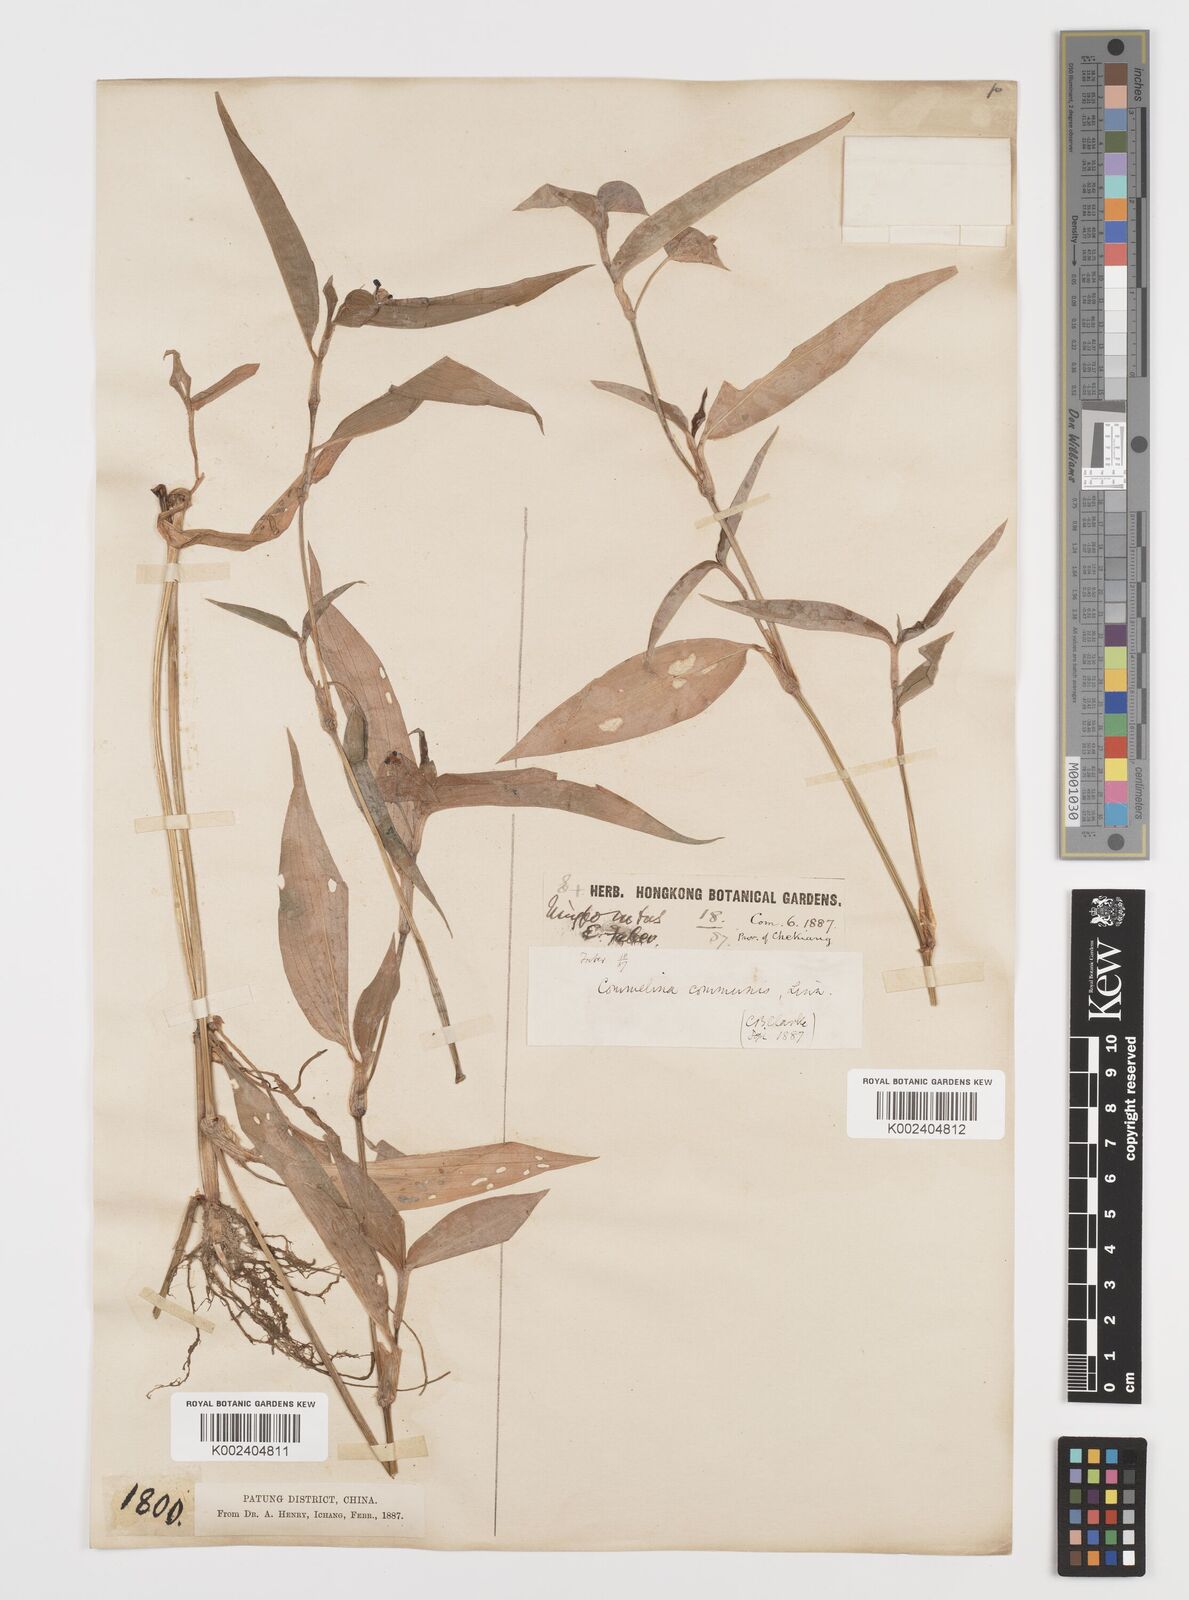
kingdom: Plantae
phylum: Tracheophyta
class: Liliopsida
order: Commelinales
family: Commelinaceae
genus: Commelina
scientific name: Commelina communis
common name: Asiatic dayflower
